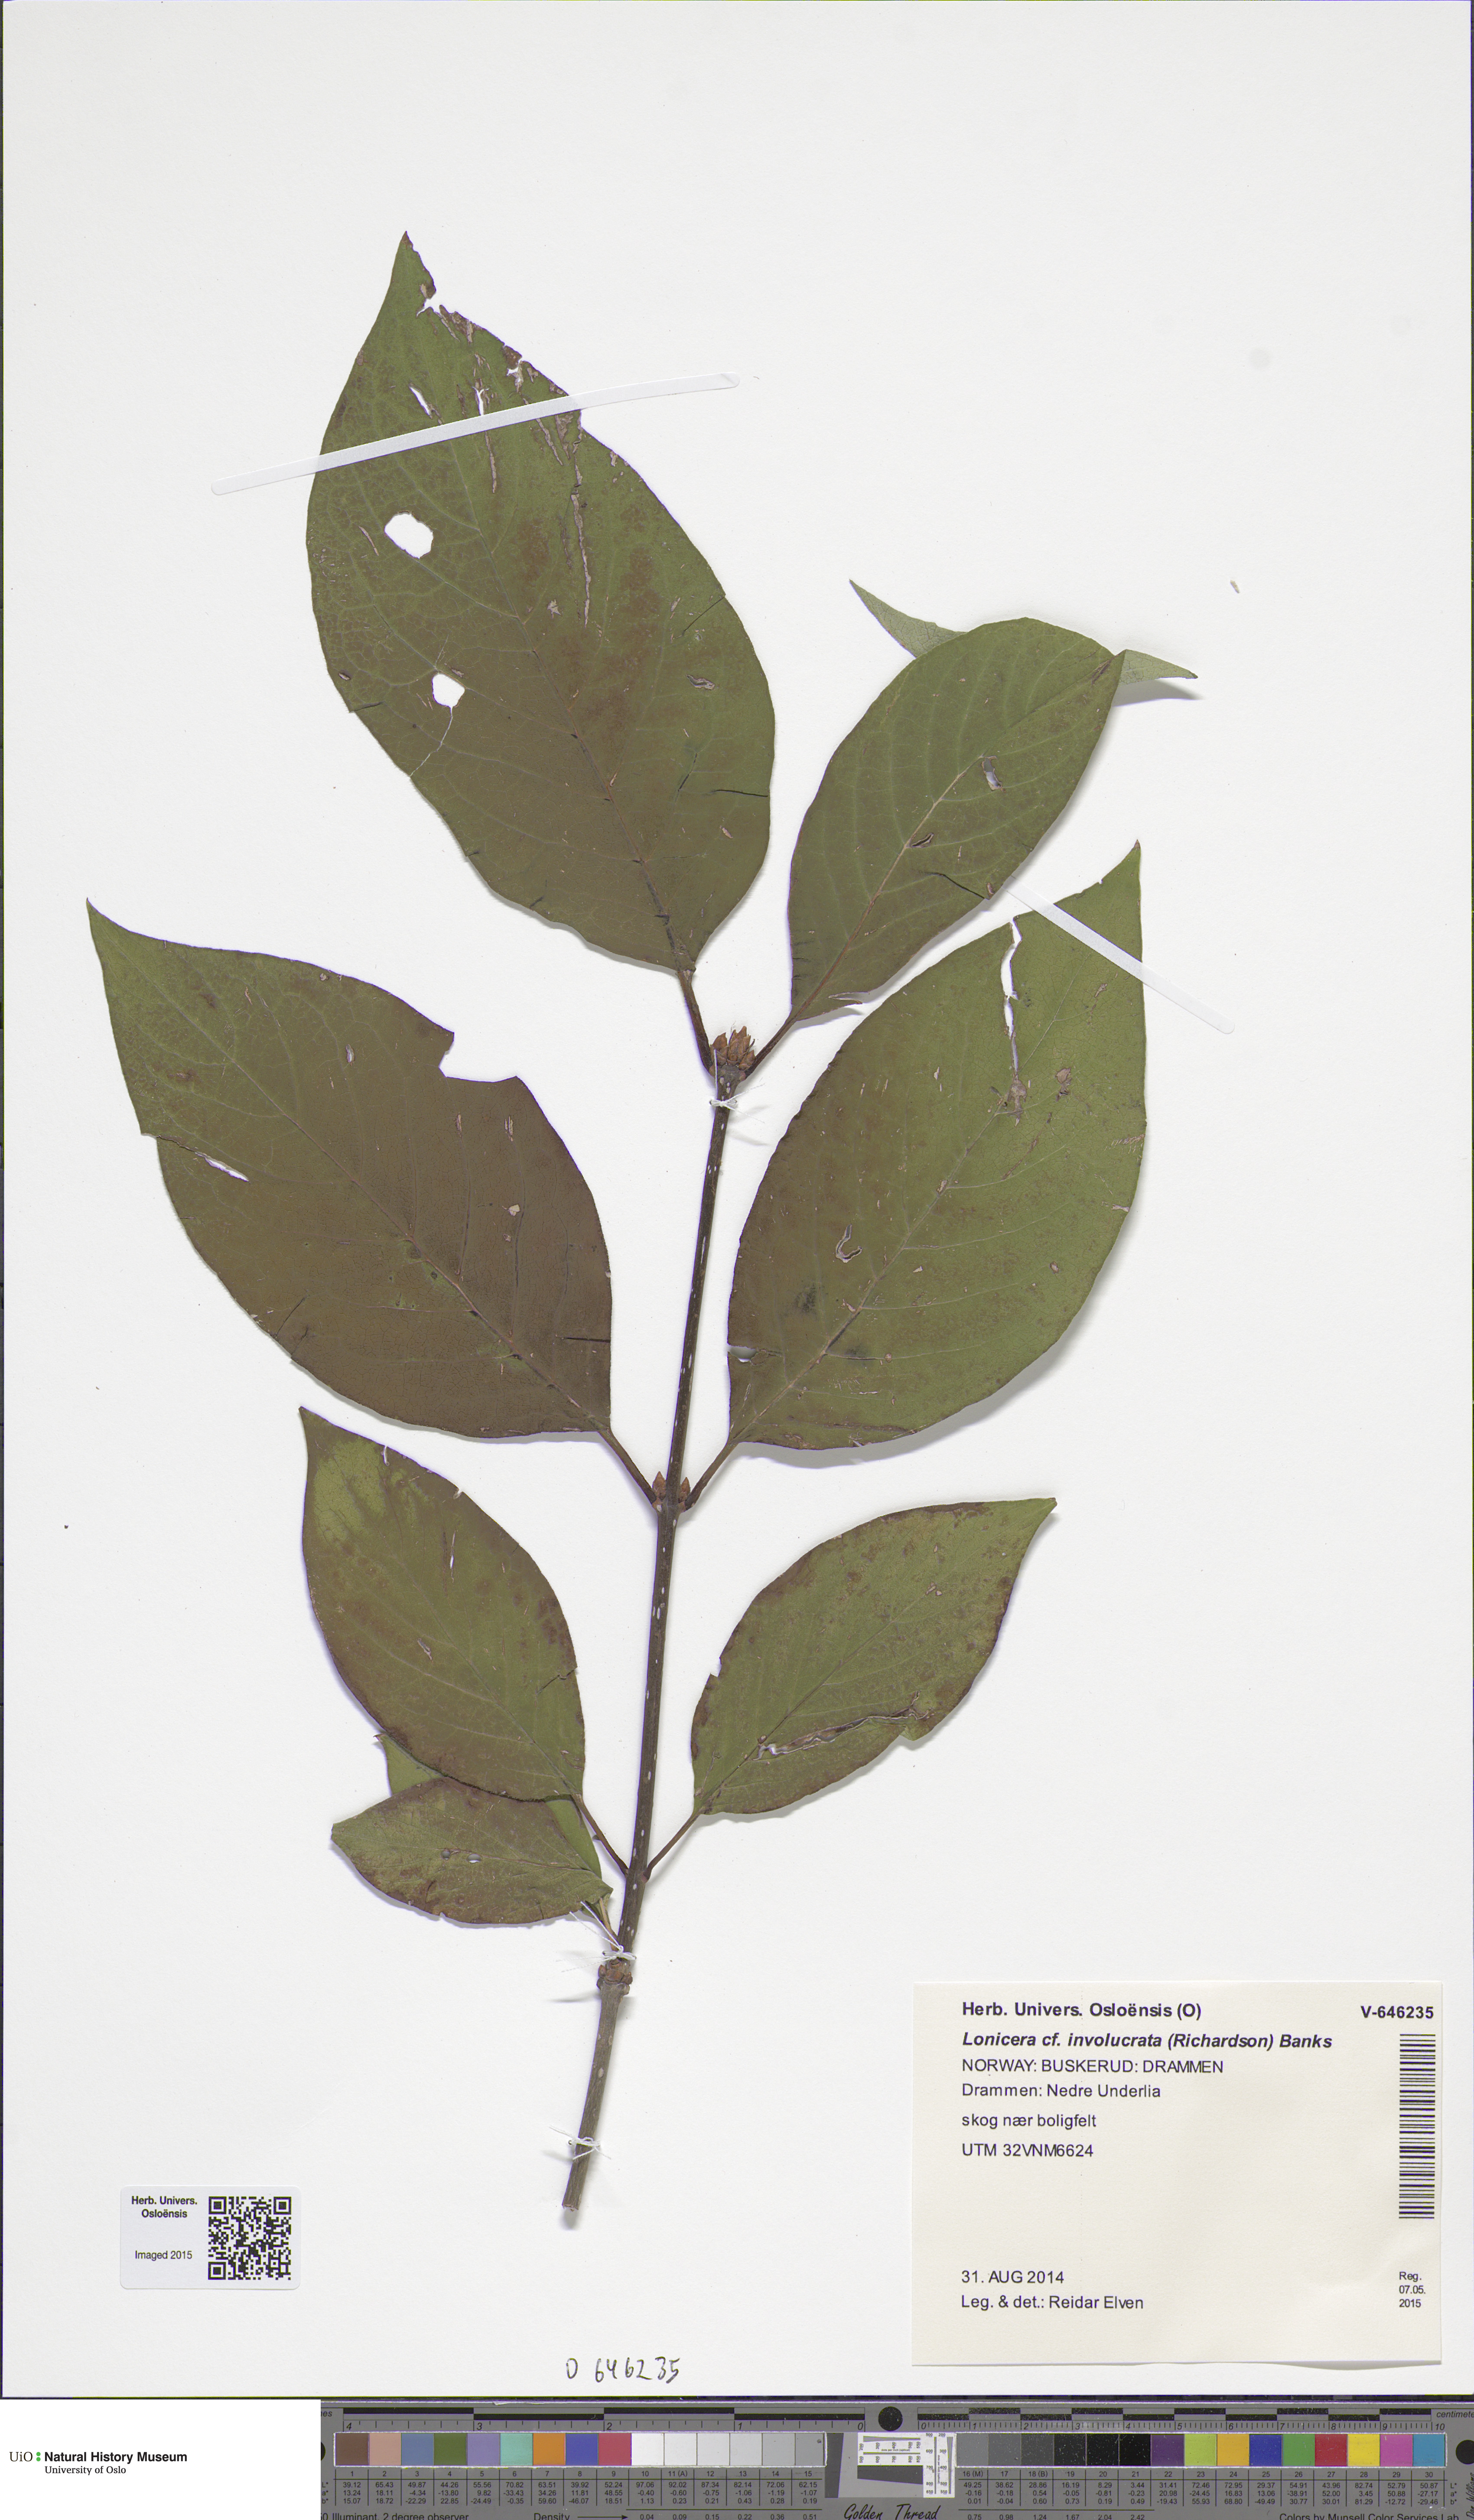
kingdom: Plantae
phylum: Tracheophyta
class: Magnoliopsida
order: Dipsacales
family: Caprifoliaceae
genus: Lonicera
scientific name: Lonicera involucrata
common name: Californian honeysuckle
